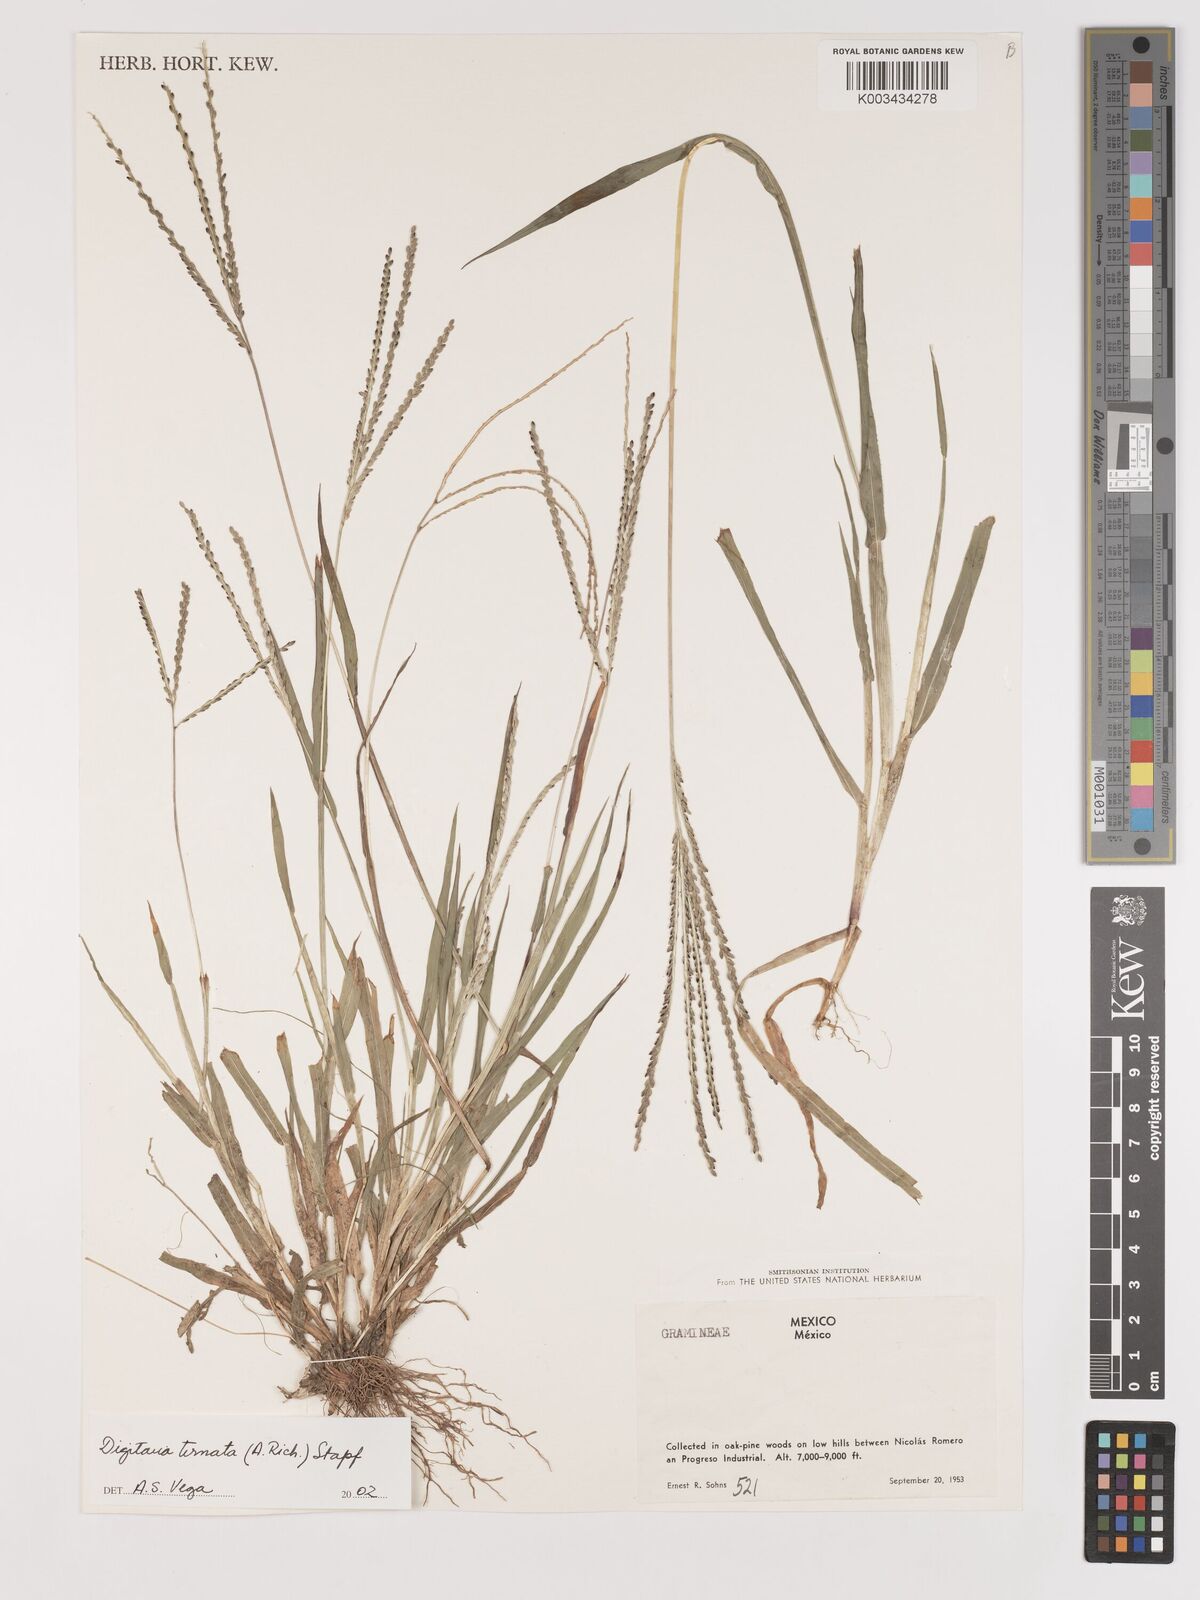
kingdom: Plantae
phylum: Tracheophyta
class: Liliopsida
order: Poales
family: Poaceae
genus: Digitaria
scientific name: Digitaria ternata
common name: Blackseed crabgrass
